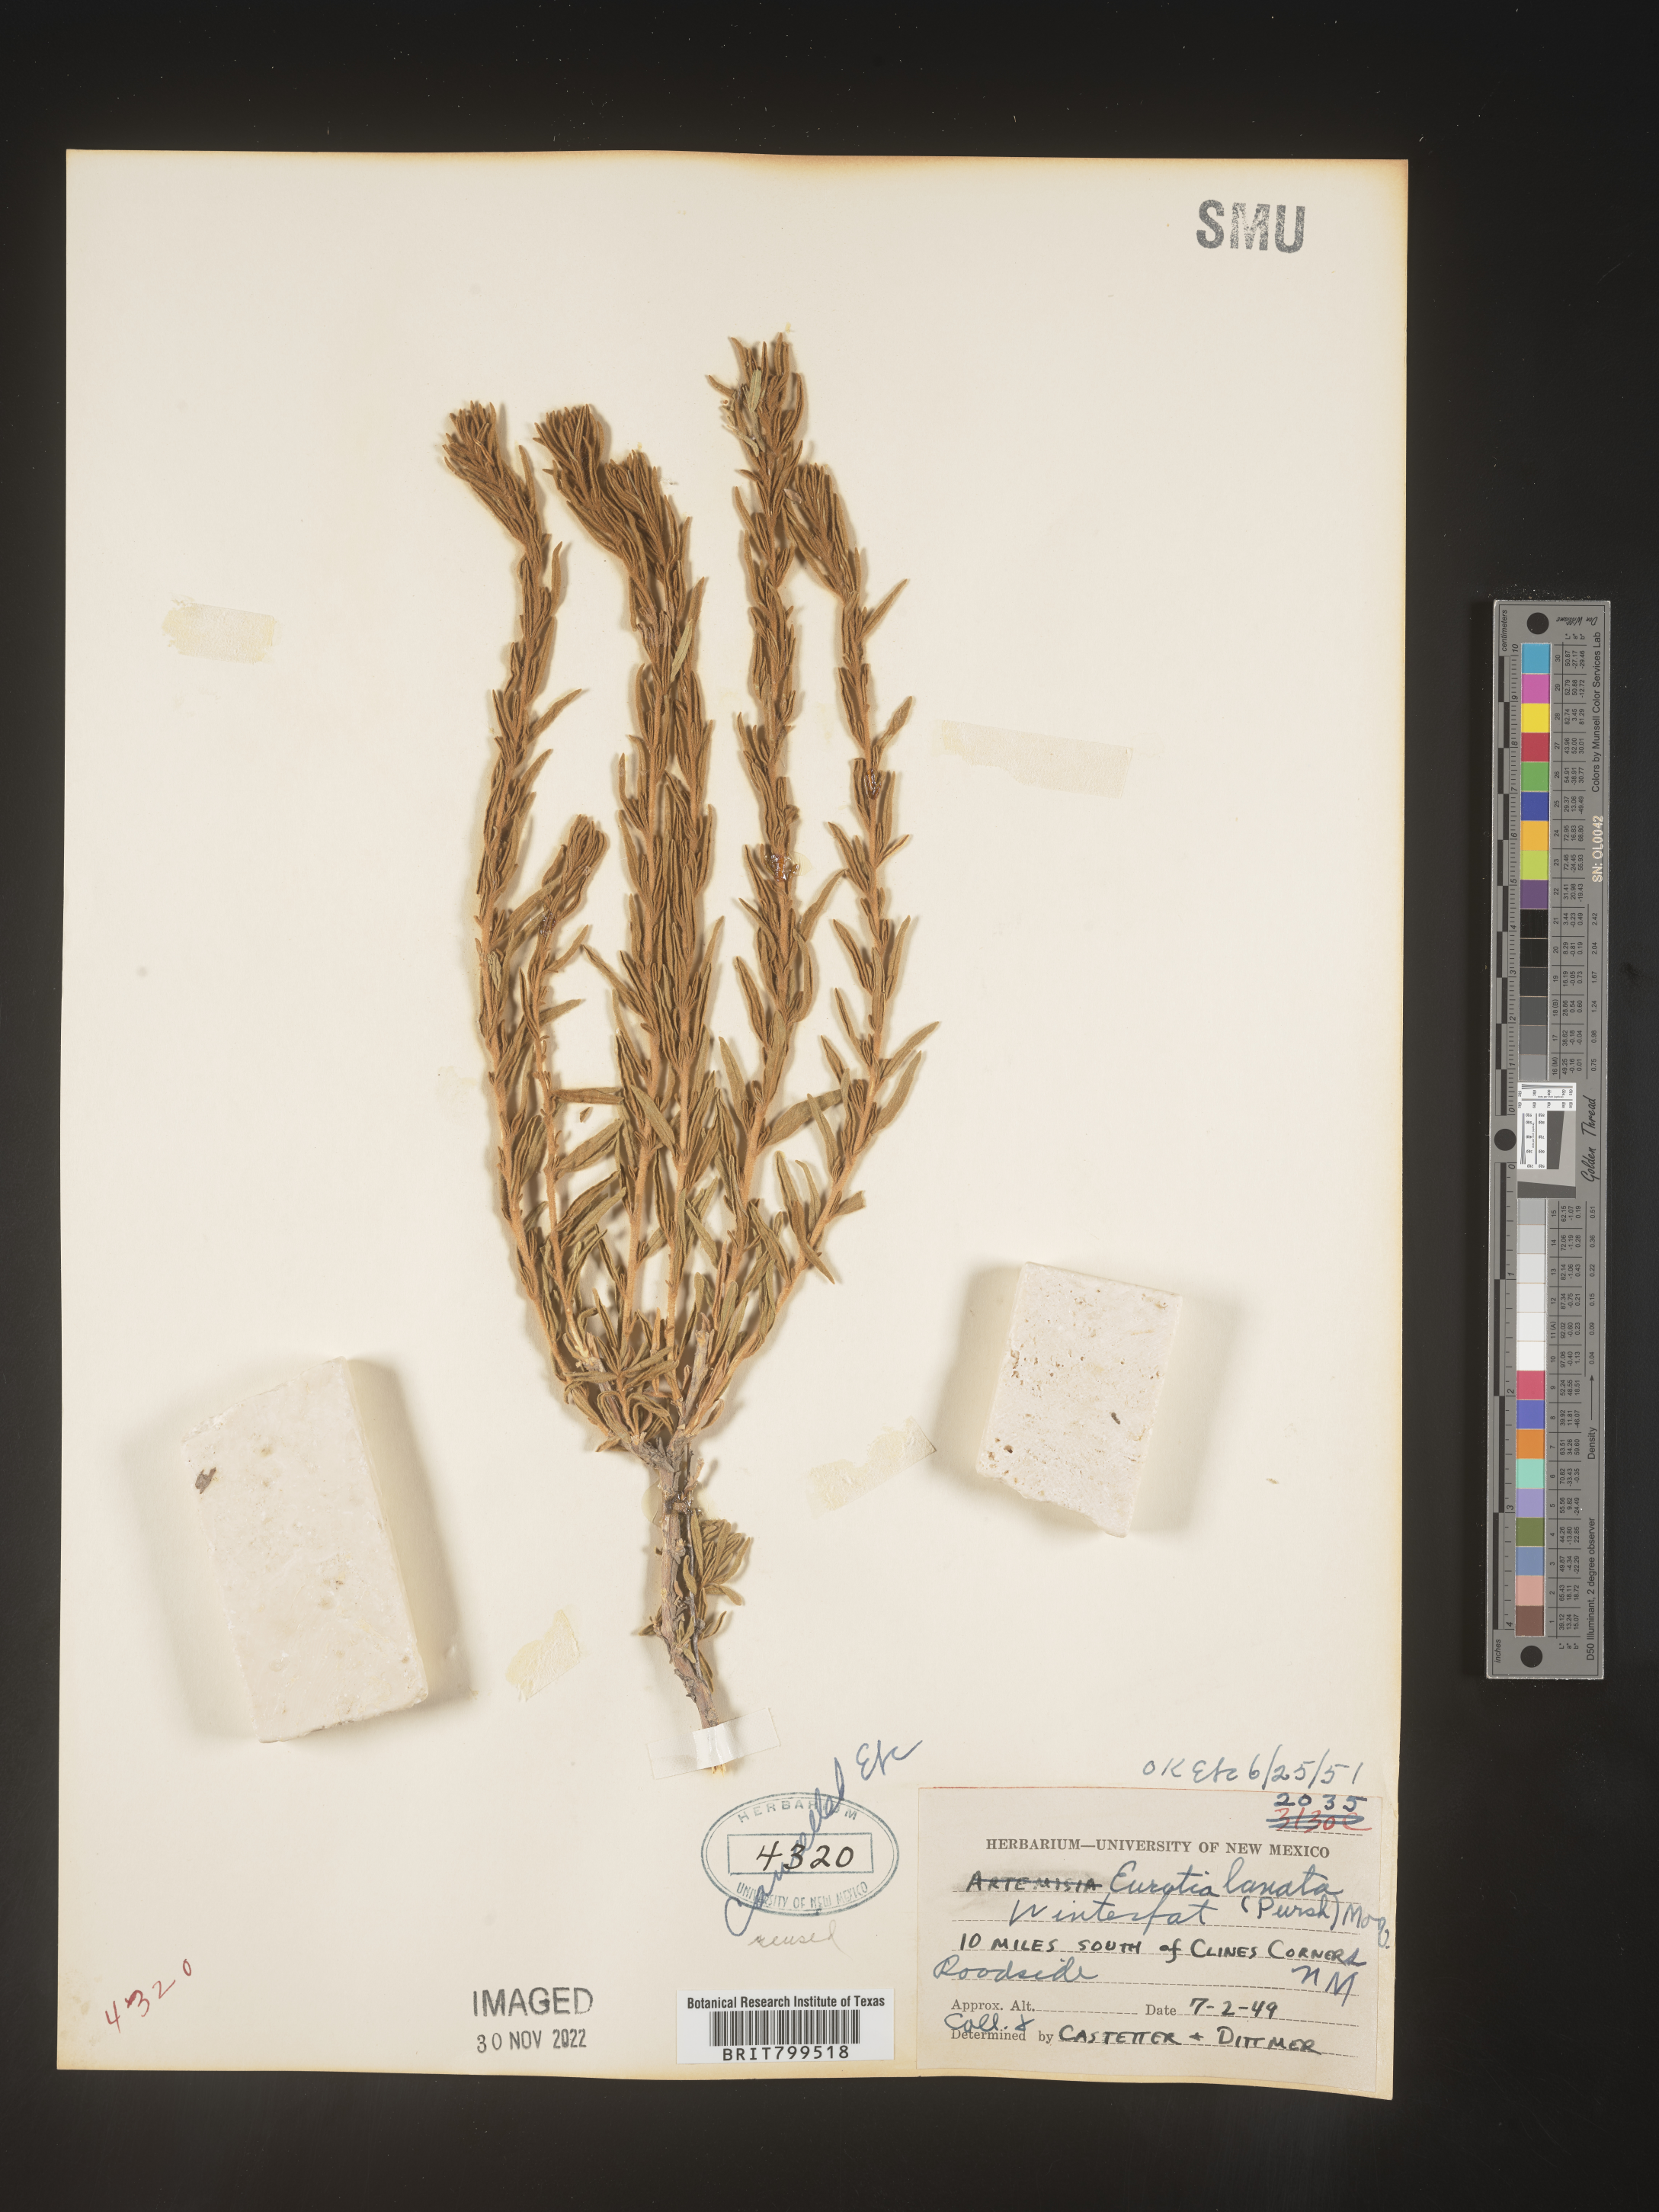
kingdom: Plantae
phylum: Tracheophyta
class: Magnoliopsida
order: Caryophyllales
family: Amaranthaceae
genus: Krascheninnikovia
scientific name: Krascheninnikovia
